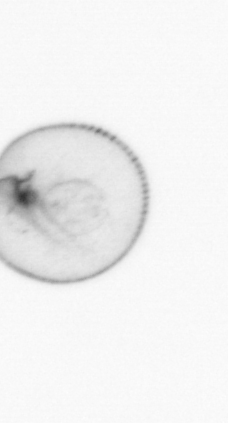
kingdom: Chromista
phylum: Myzozoa
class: Dinophyceae
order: Noctilucales
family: Noctilucaceae
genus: Noctiluca
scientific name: Noctiluca scintillans
